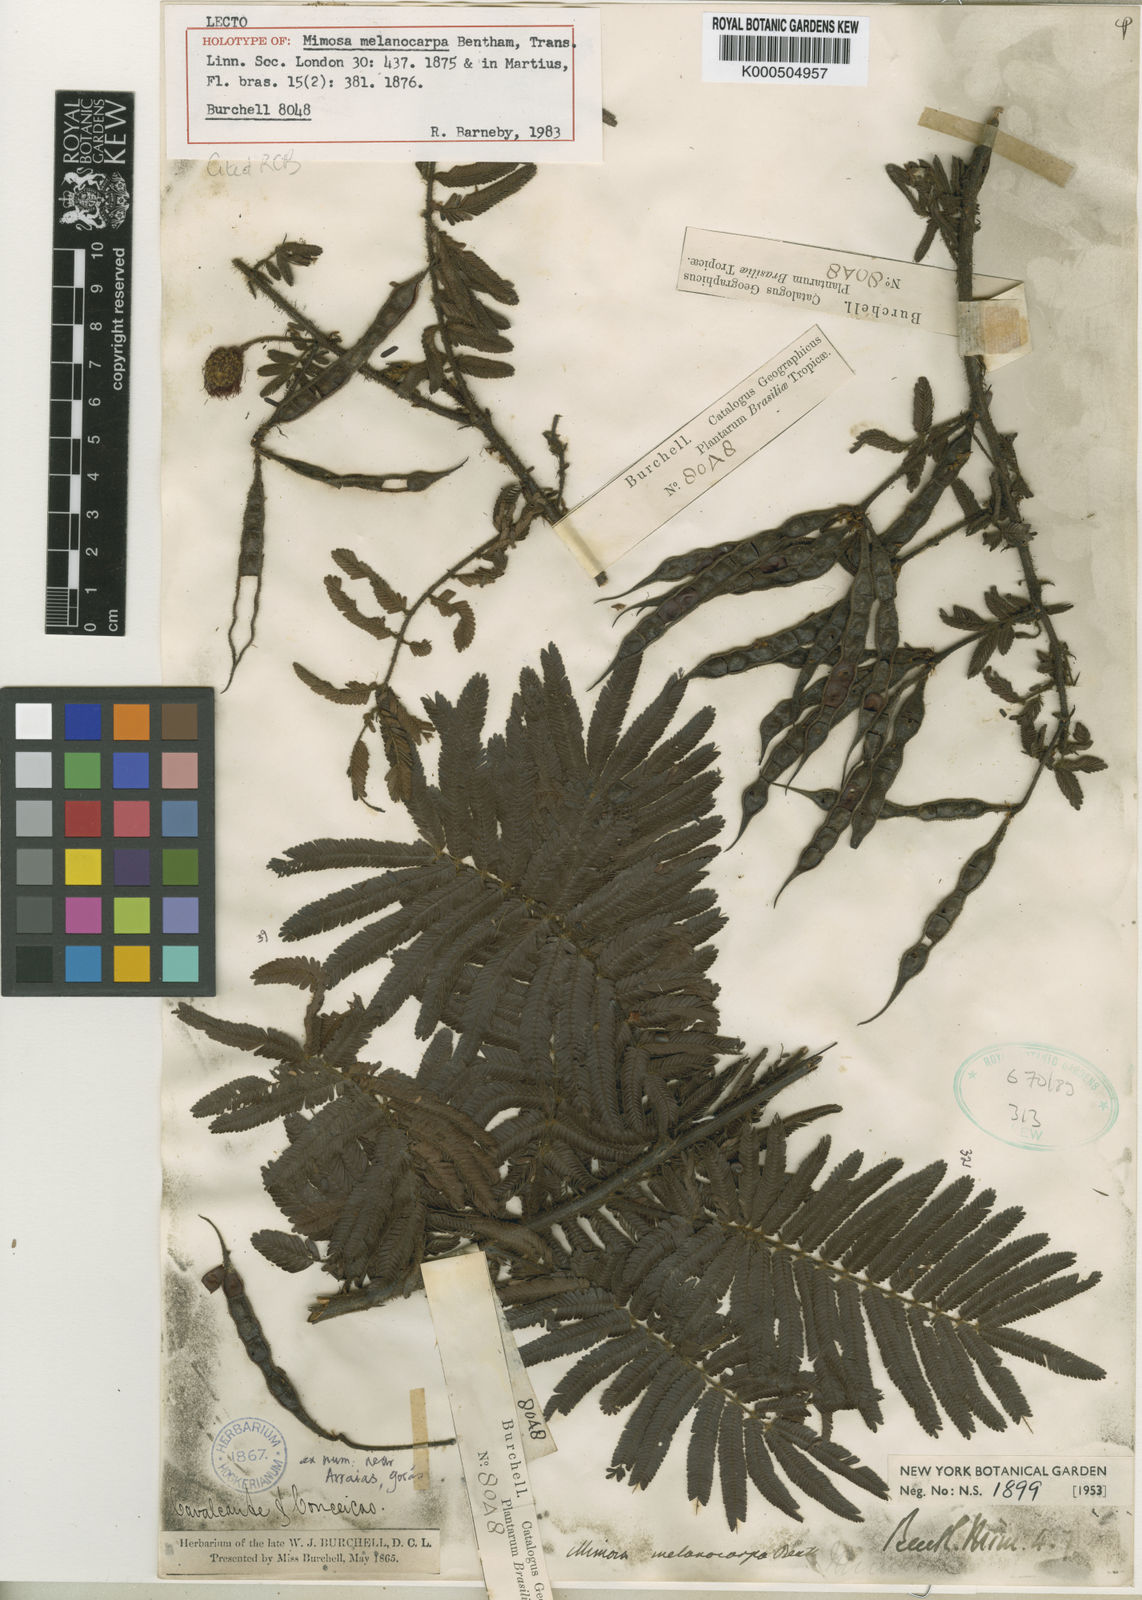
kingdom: Plantae
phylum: Tracheophyta
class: Magnoliopsida
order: Fabales
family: Fabaceae
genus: Mimosa
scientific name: Mimosa melanocarpa
